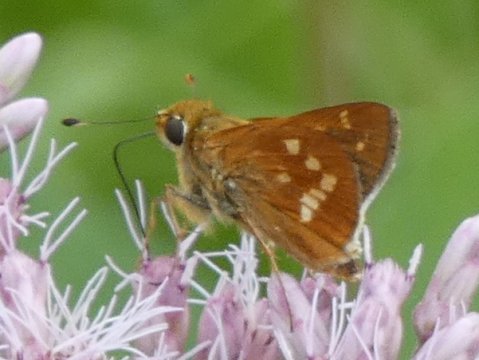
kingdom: Animalia
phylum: Arthropoda
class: Insecta
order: Lepidoptera
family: Hesperiidae
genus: Hesperia
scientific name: Hesperia leonardus
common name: Leonard's Skipper
